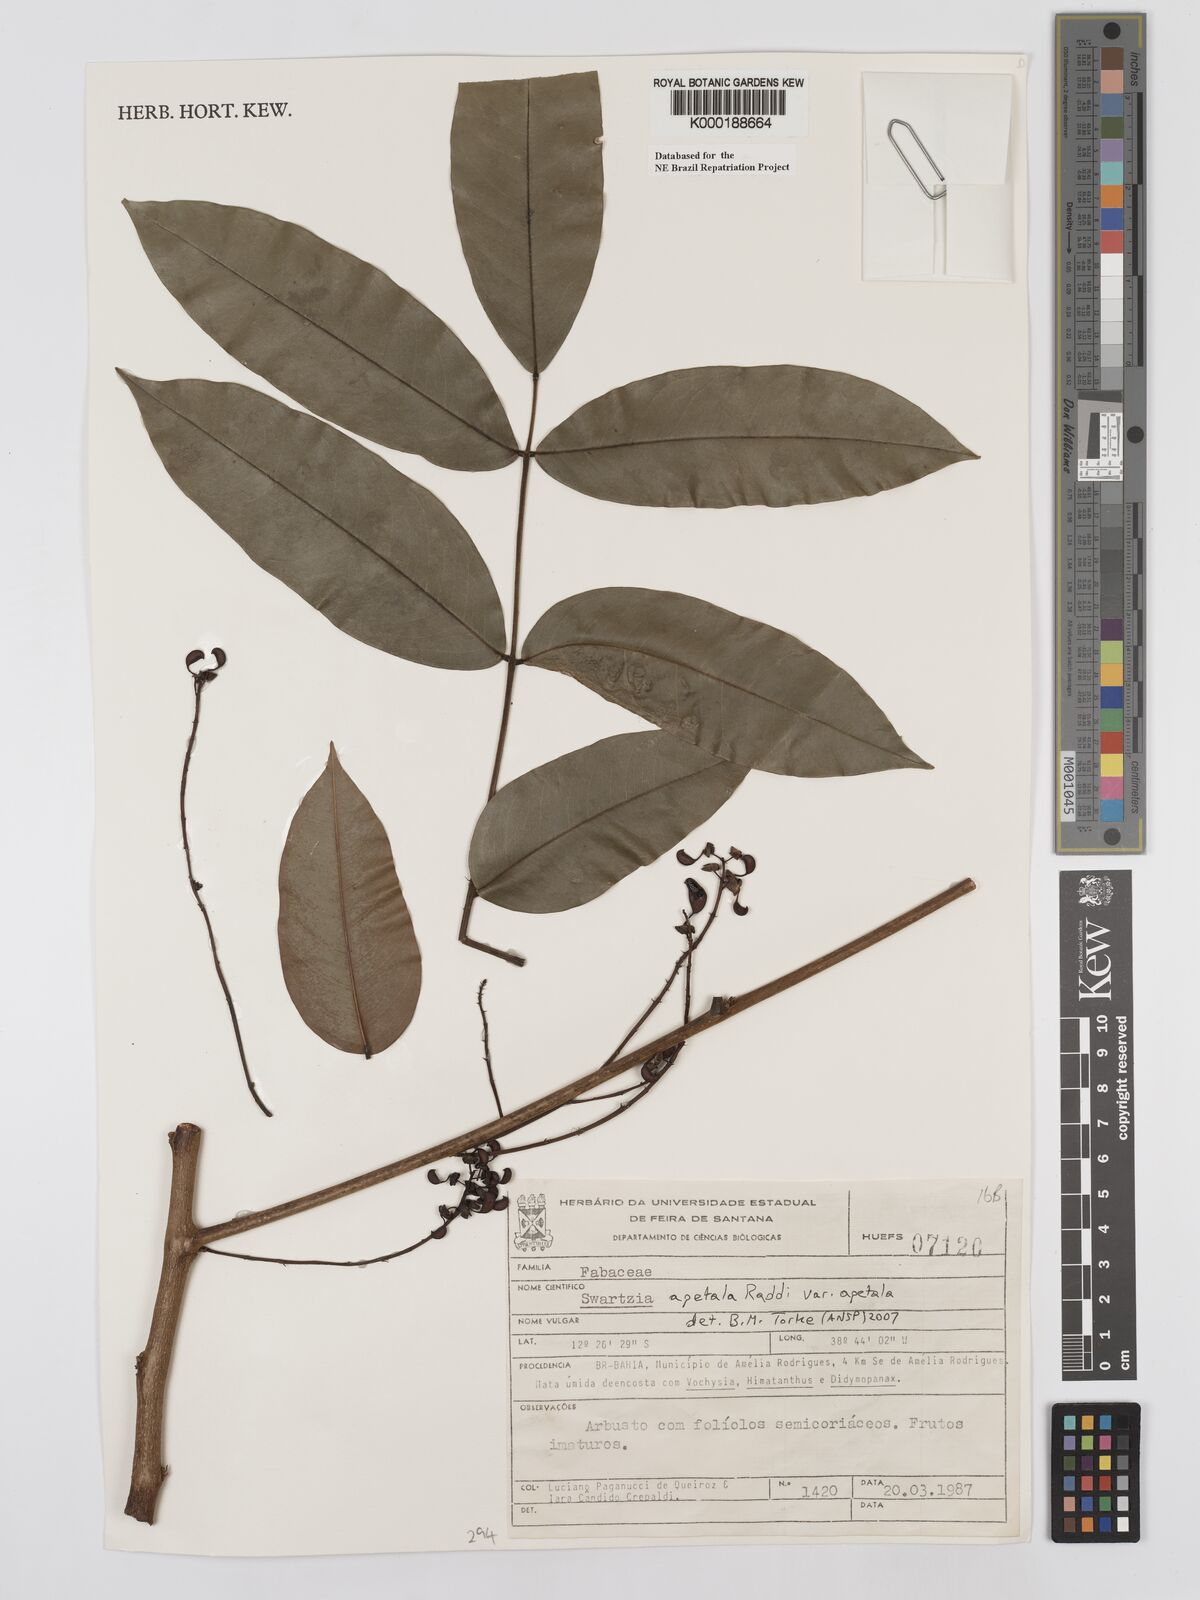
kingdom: Plantae
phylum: Tracheophyta
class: Magnoliopsida
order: Fabales
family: Fabaceae
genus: Swartzia
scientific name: Swartzia
